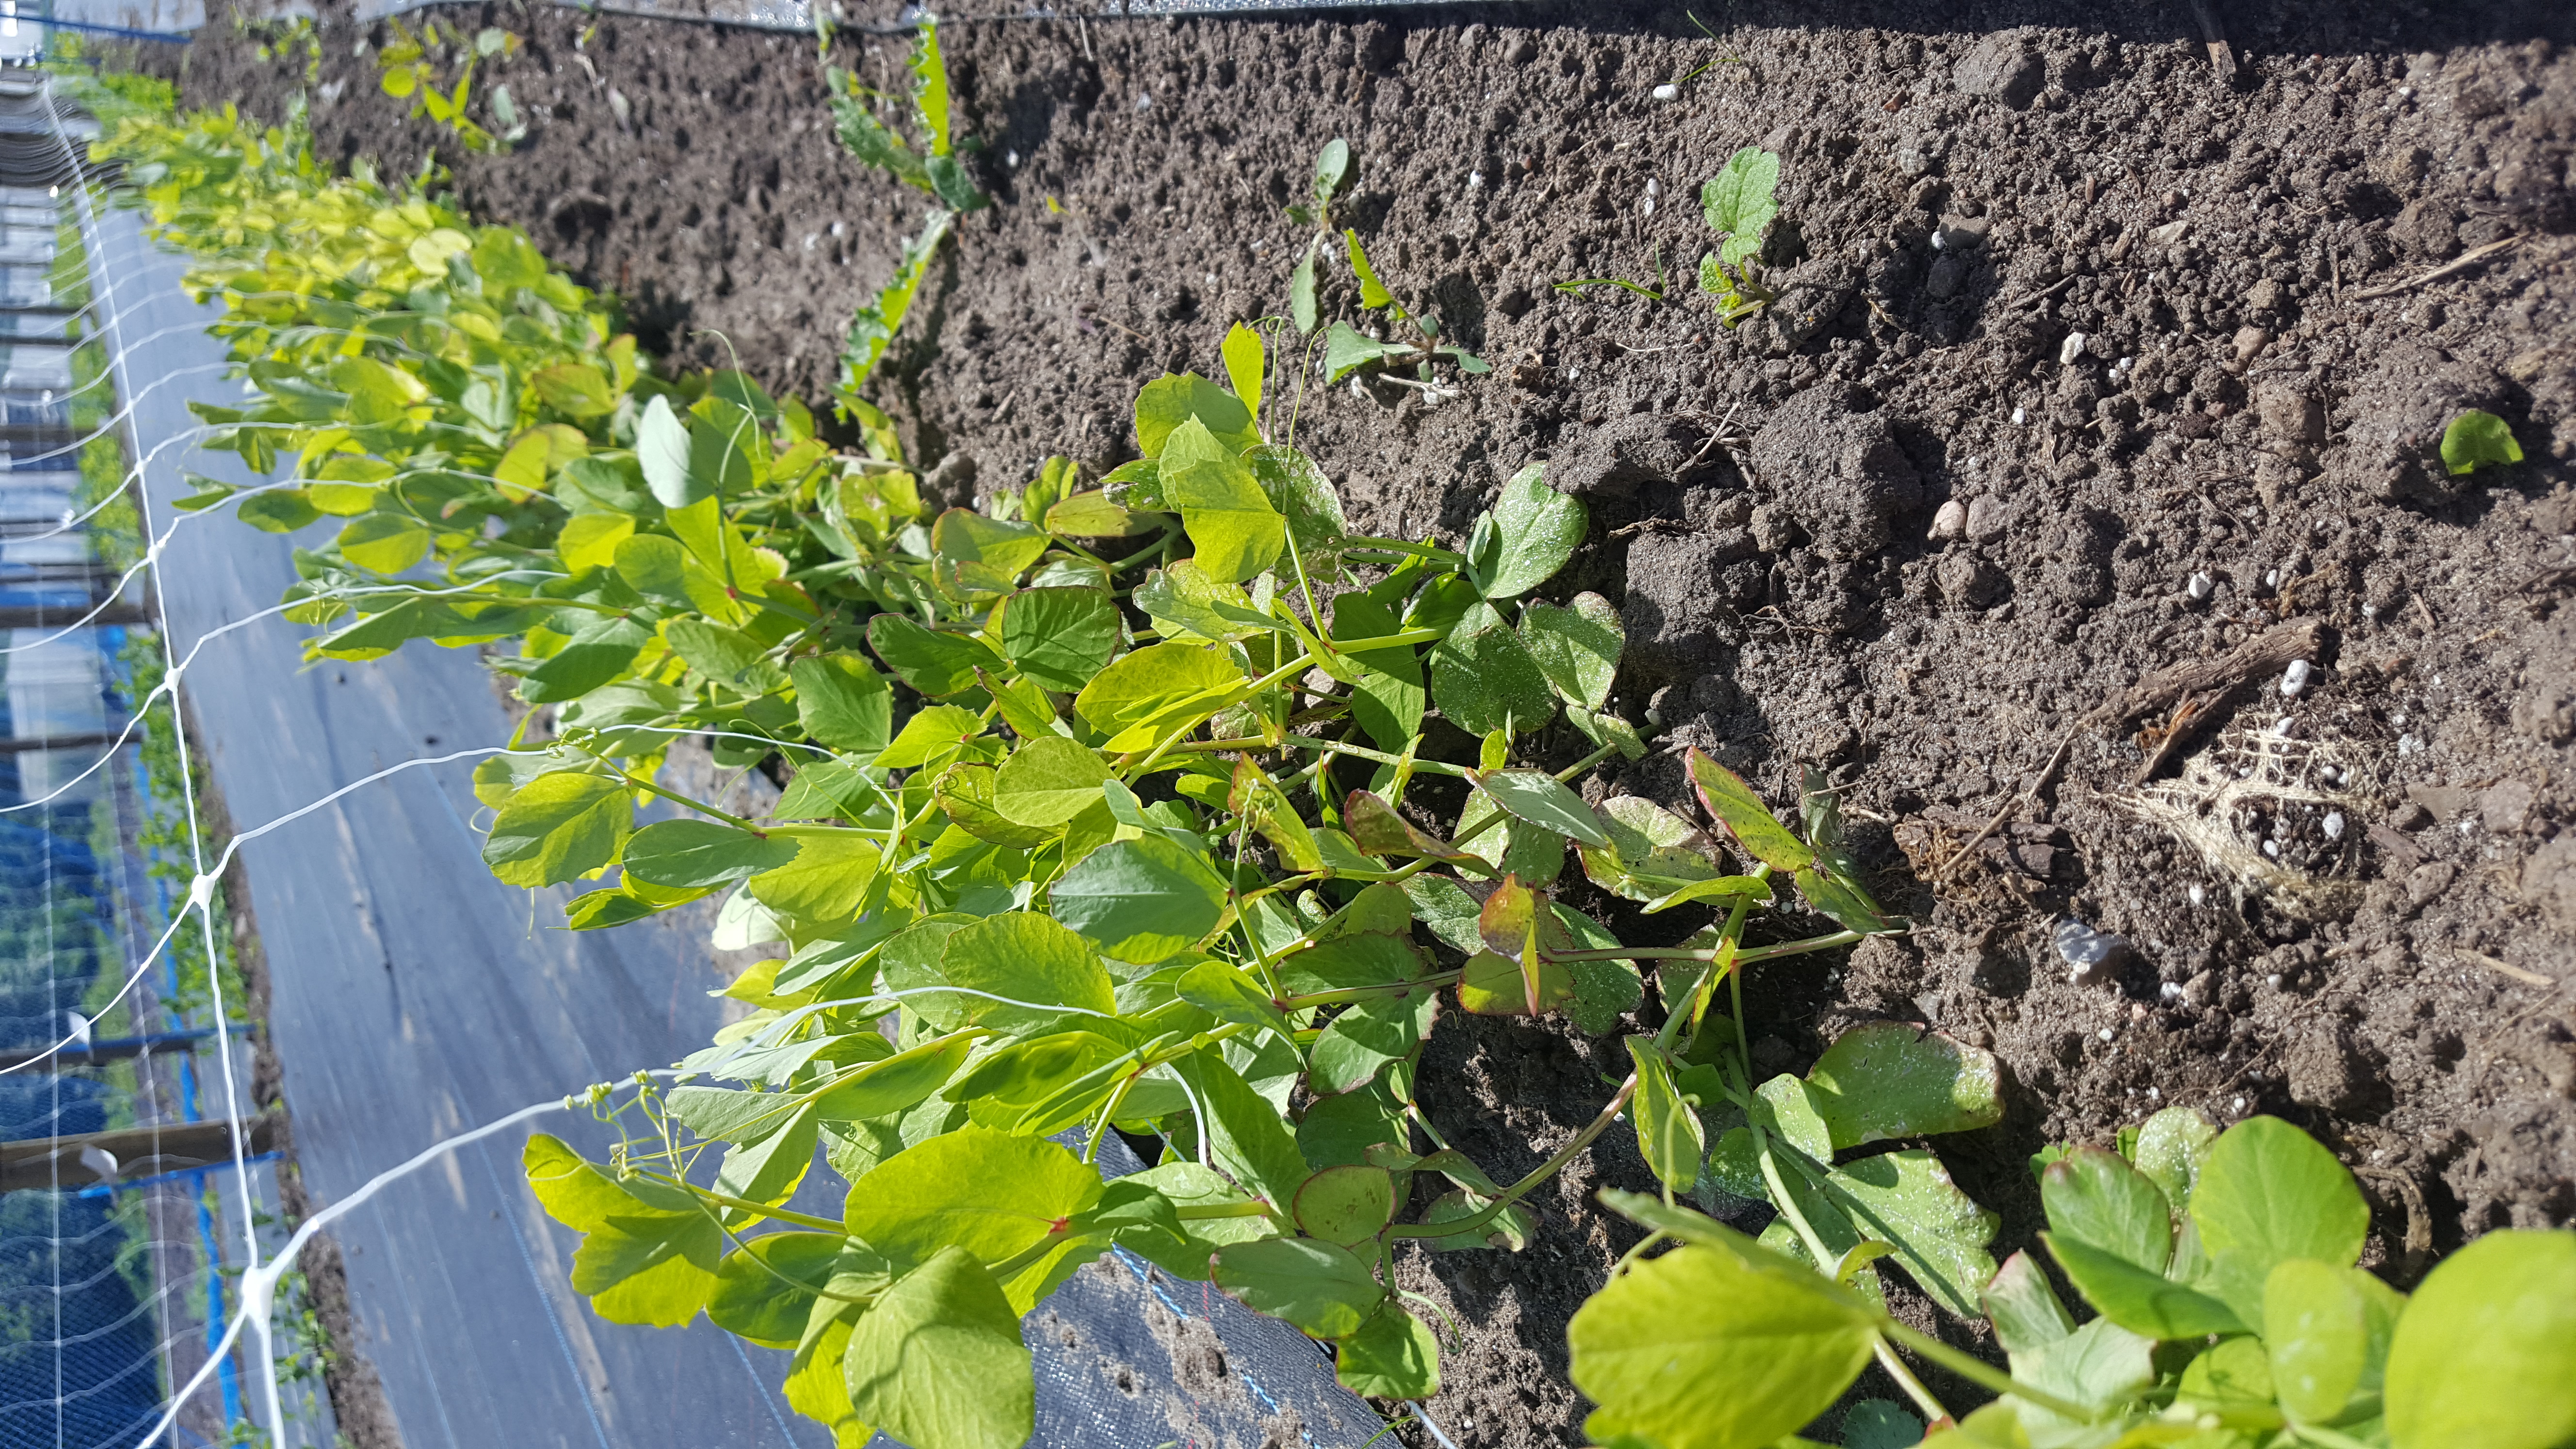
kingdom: Plantae
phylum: Tracheophyta
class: Magnoliopsida
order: Fabales
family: Fabaceae
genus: Lathyrus
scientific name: Lathyrus oleraceus
